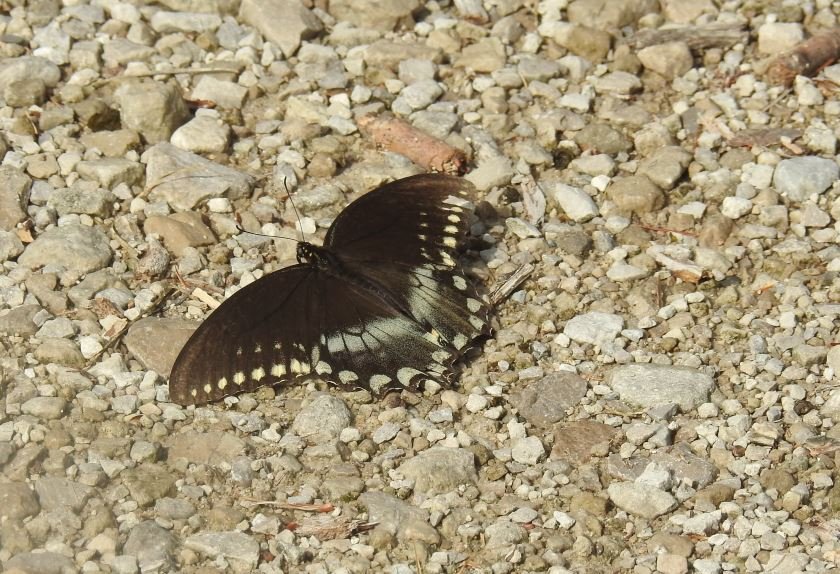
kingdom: Animalia
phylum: Arthropoda
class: Insecta
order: Lepidoptera
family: Papilionidae
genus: Pterourus
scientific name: Pterourus troilus
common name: Spicebush Swallowtail
